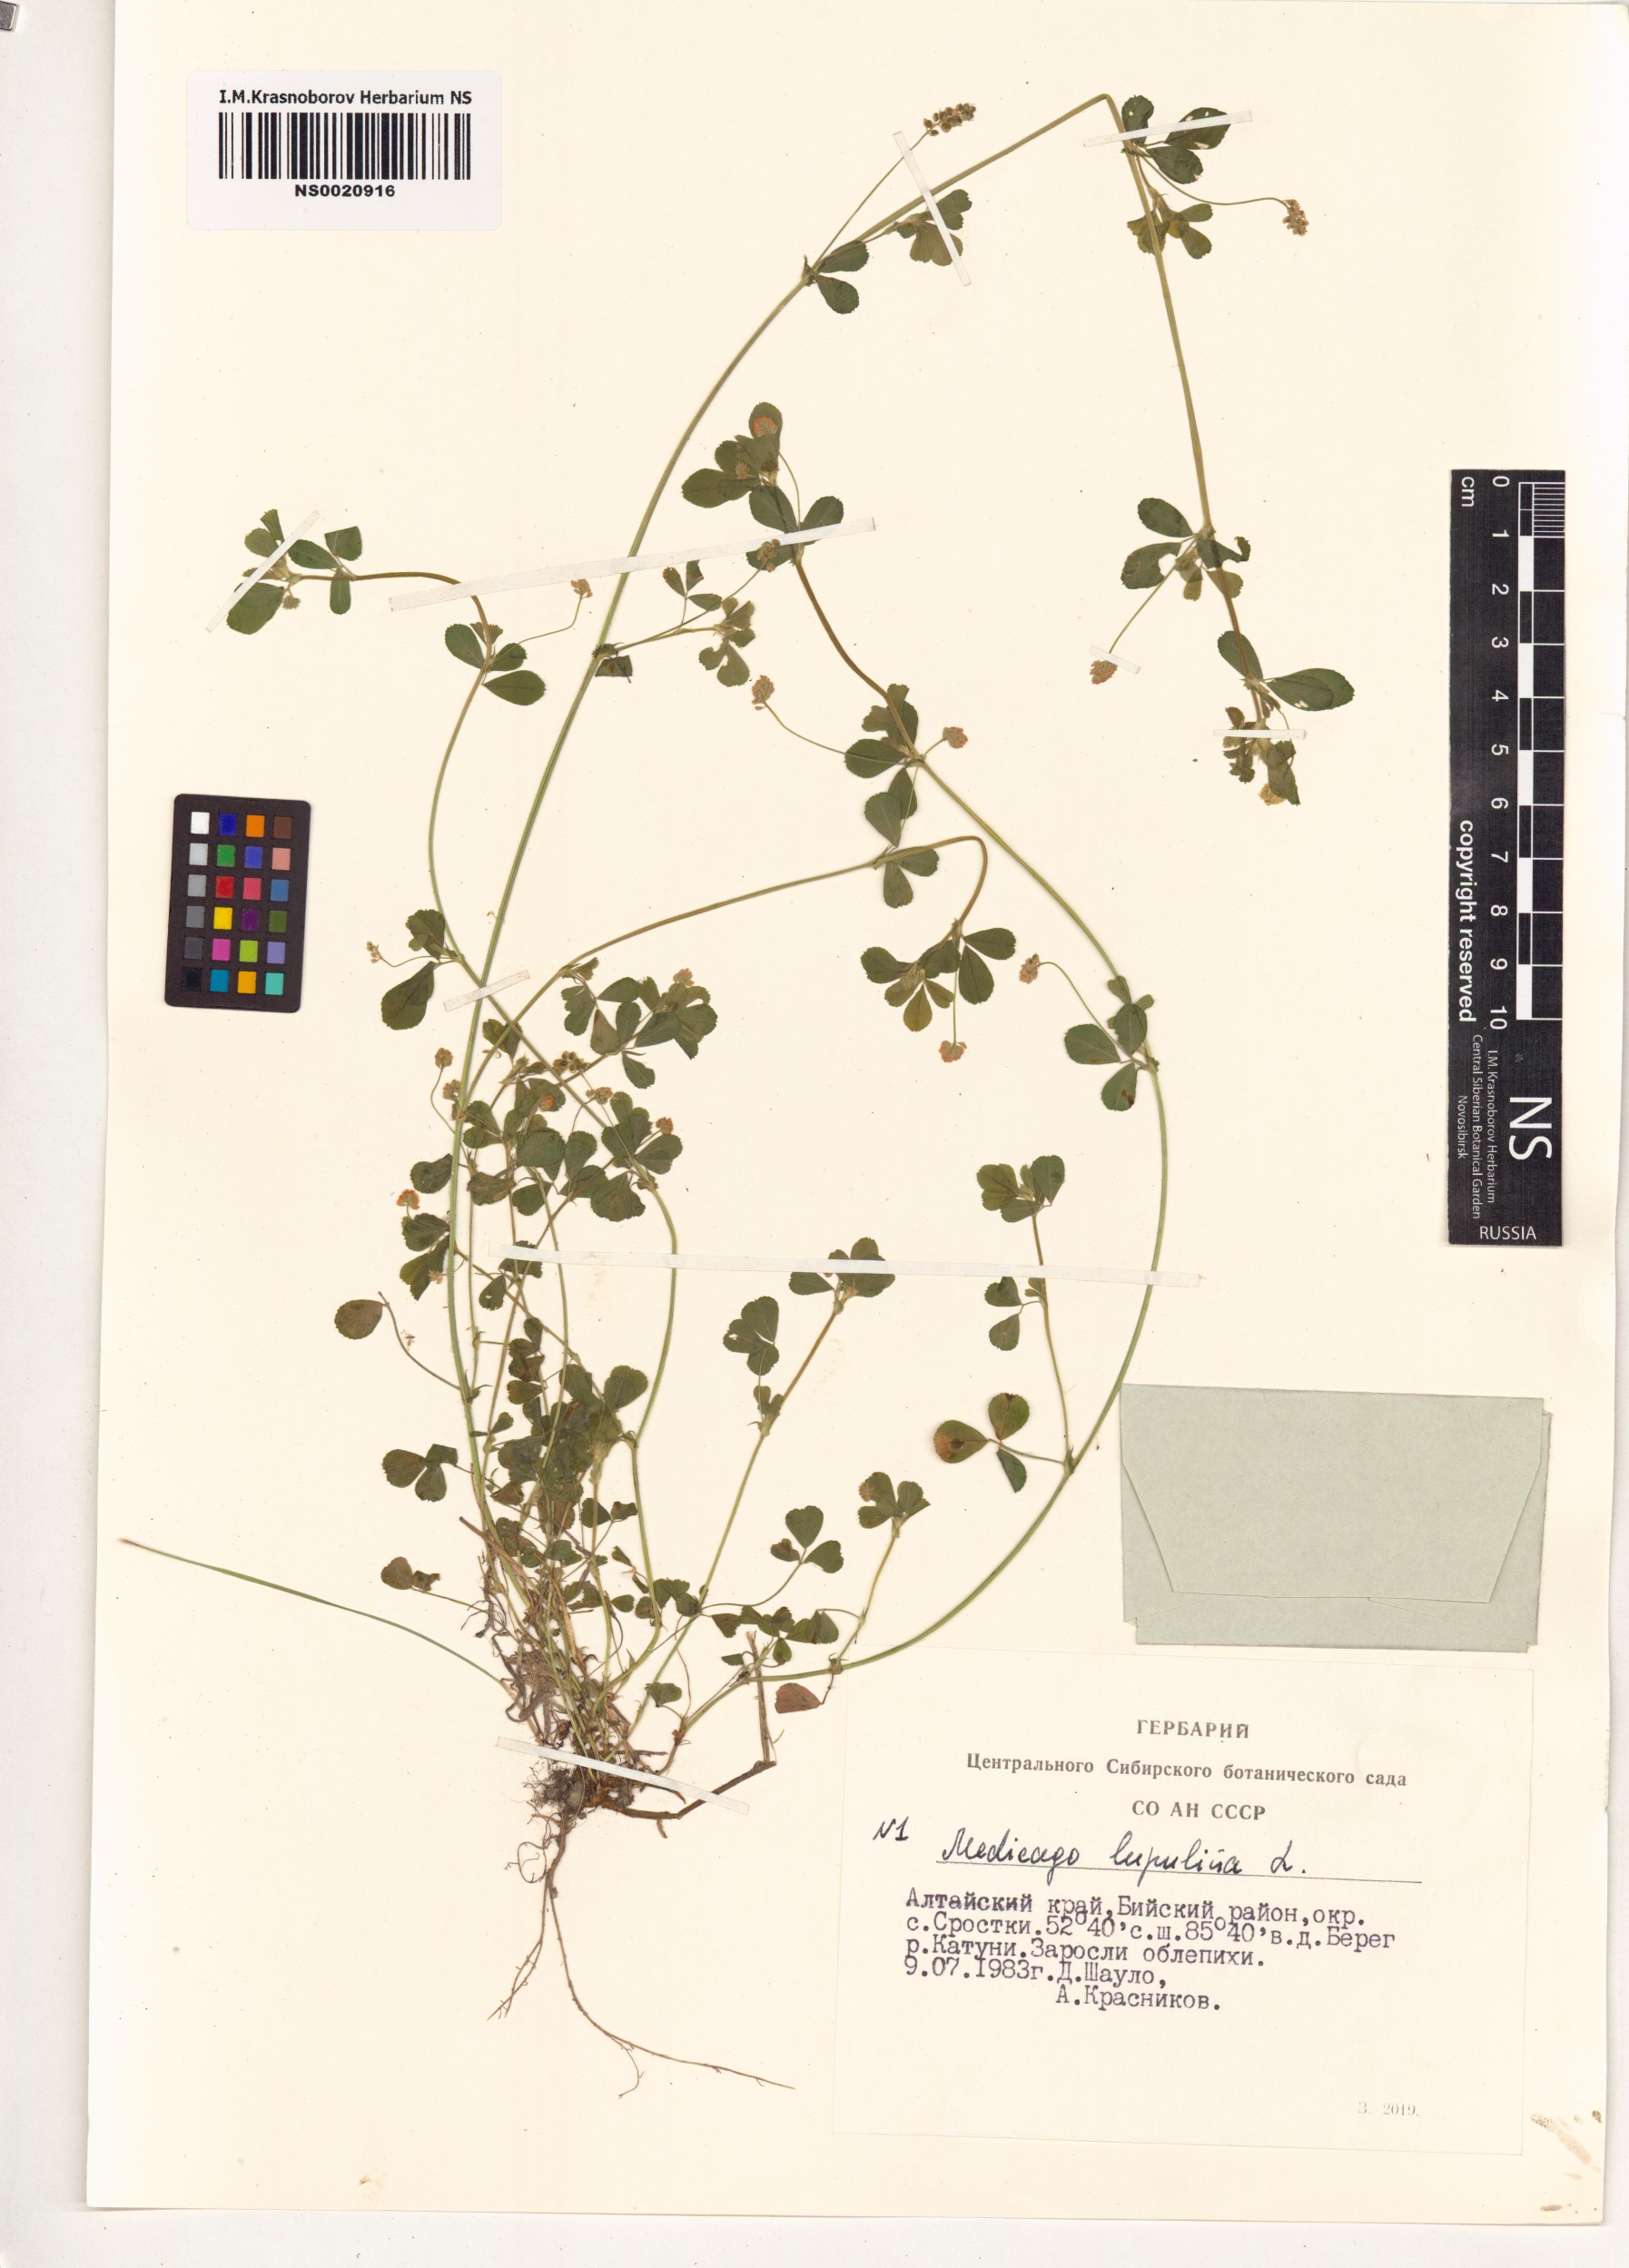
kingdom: Plantae
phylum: Tracheophyta
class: Magnoliopsida
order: Fabales
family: Fabaceae
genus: Medicago
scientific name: Medicago lupulina
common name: Black medick
